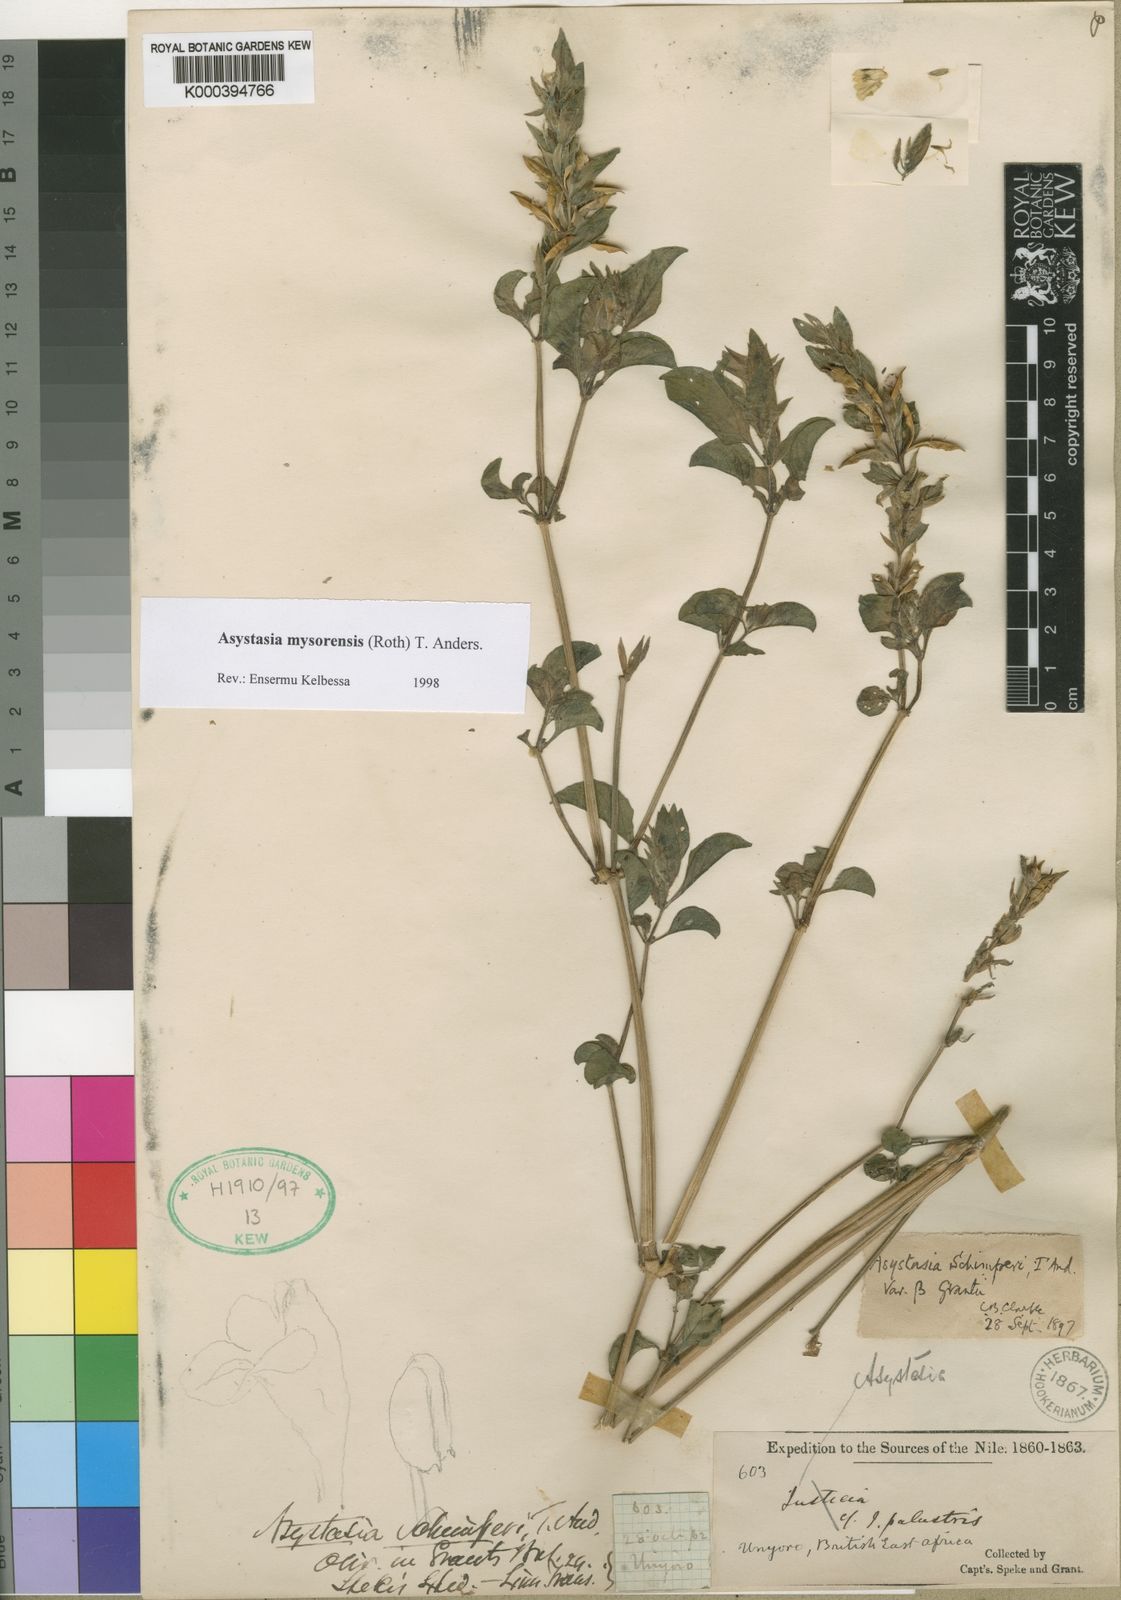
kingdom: Plantae
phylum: Tracheophyta
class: Magnoliopsida
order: Lamiales
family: Acanthaceae
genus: Asystasia
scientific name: Asystasia mysorensis
